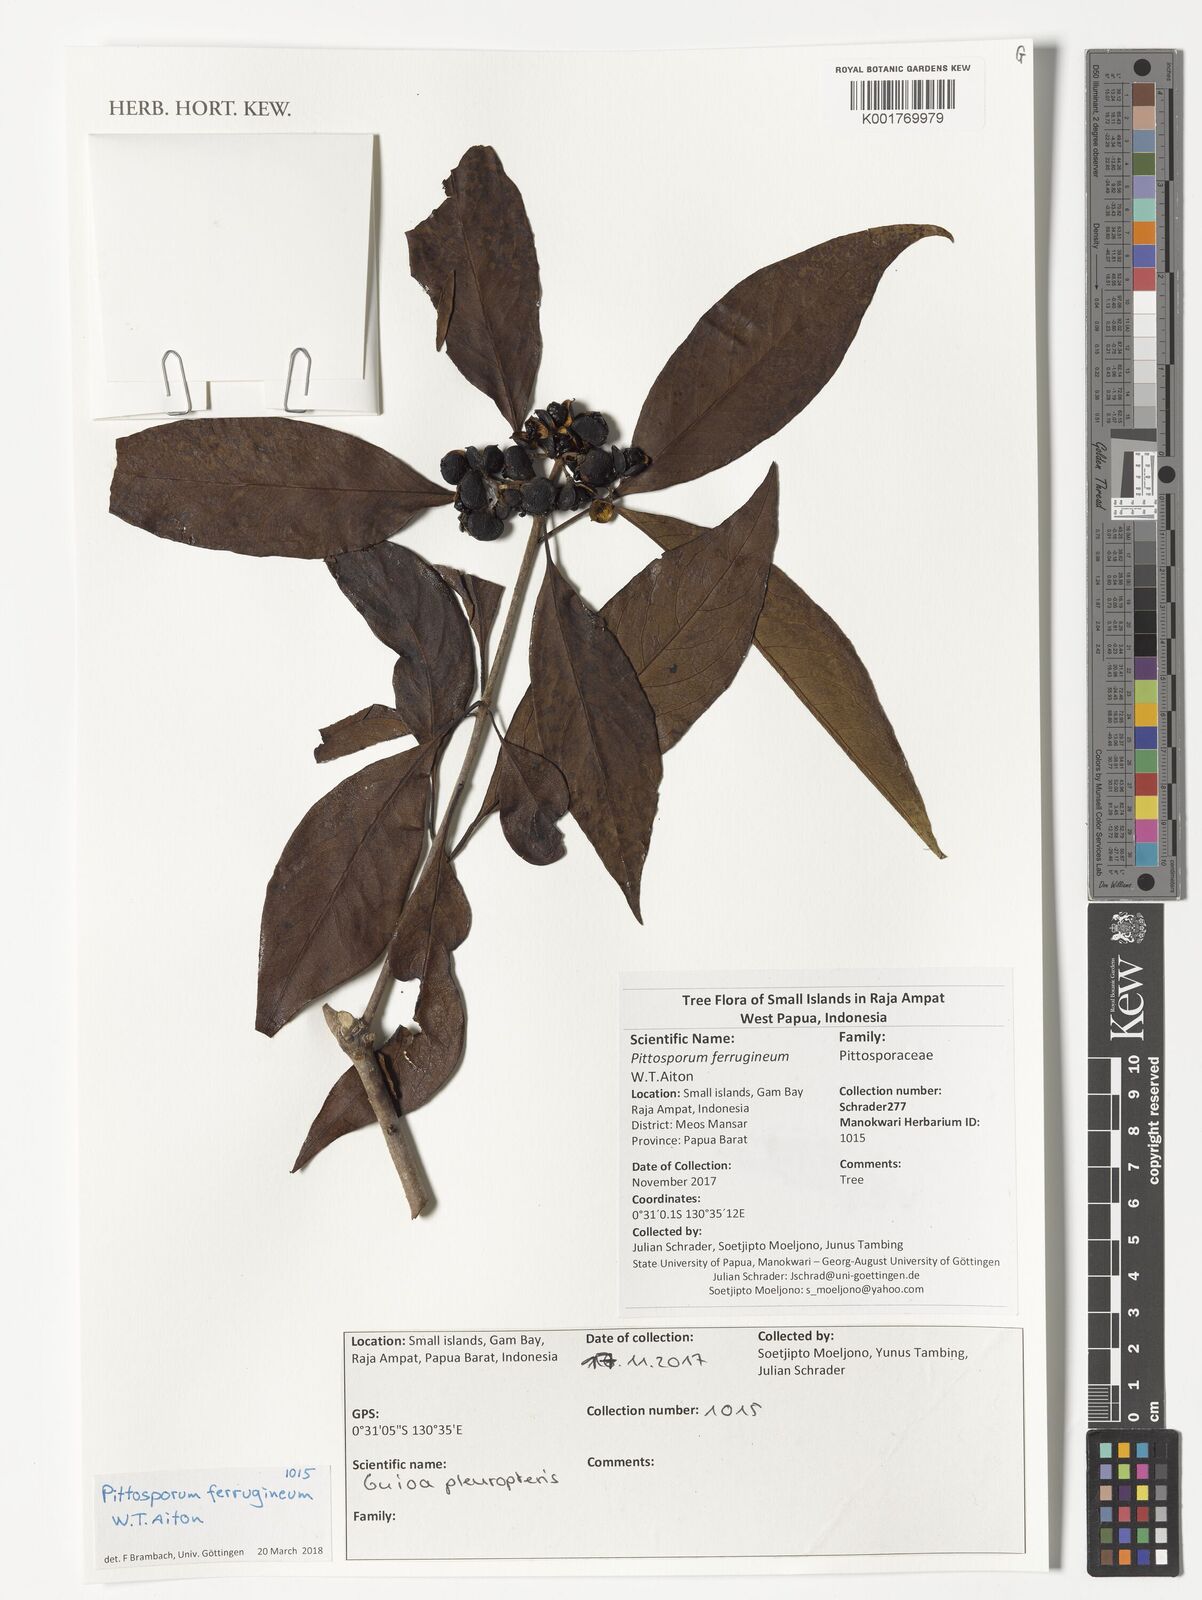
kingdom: Plantae
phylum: Tracheophyta
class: Magnoliopsida
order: Apiales
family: Pittosporaceae
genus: Pittosporum
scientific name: Pittosporum ferrugineum
